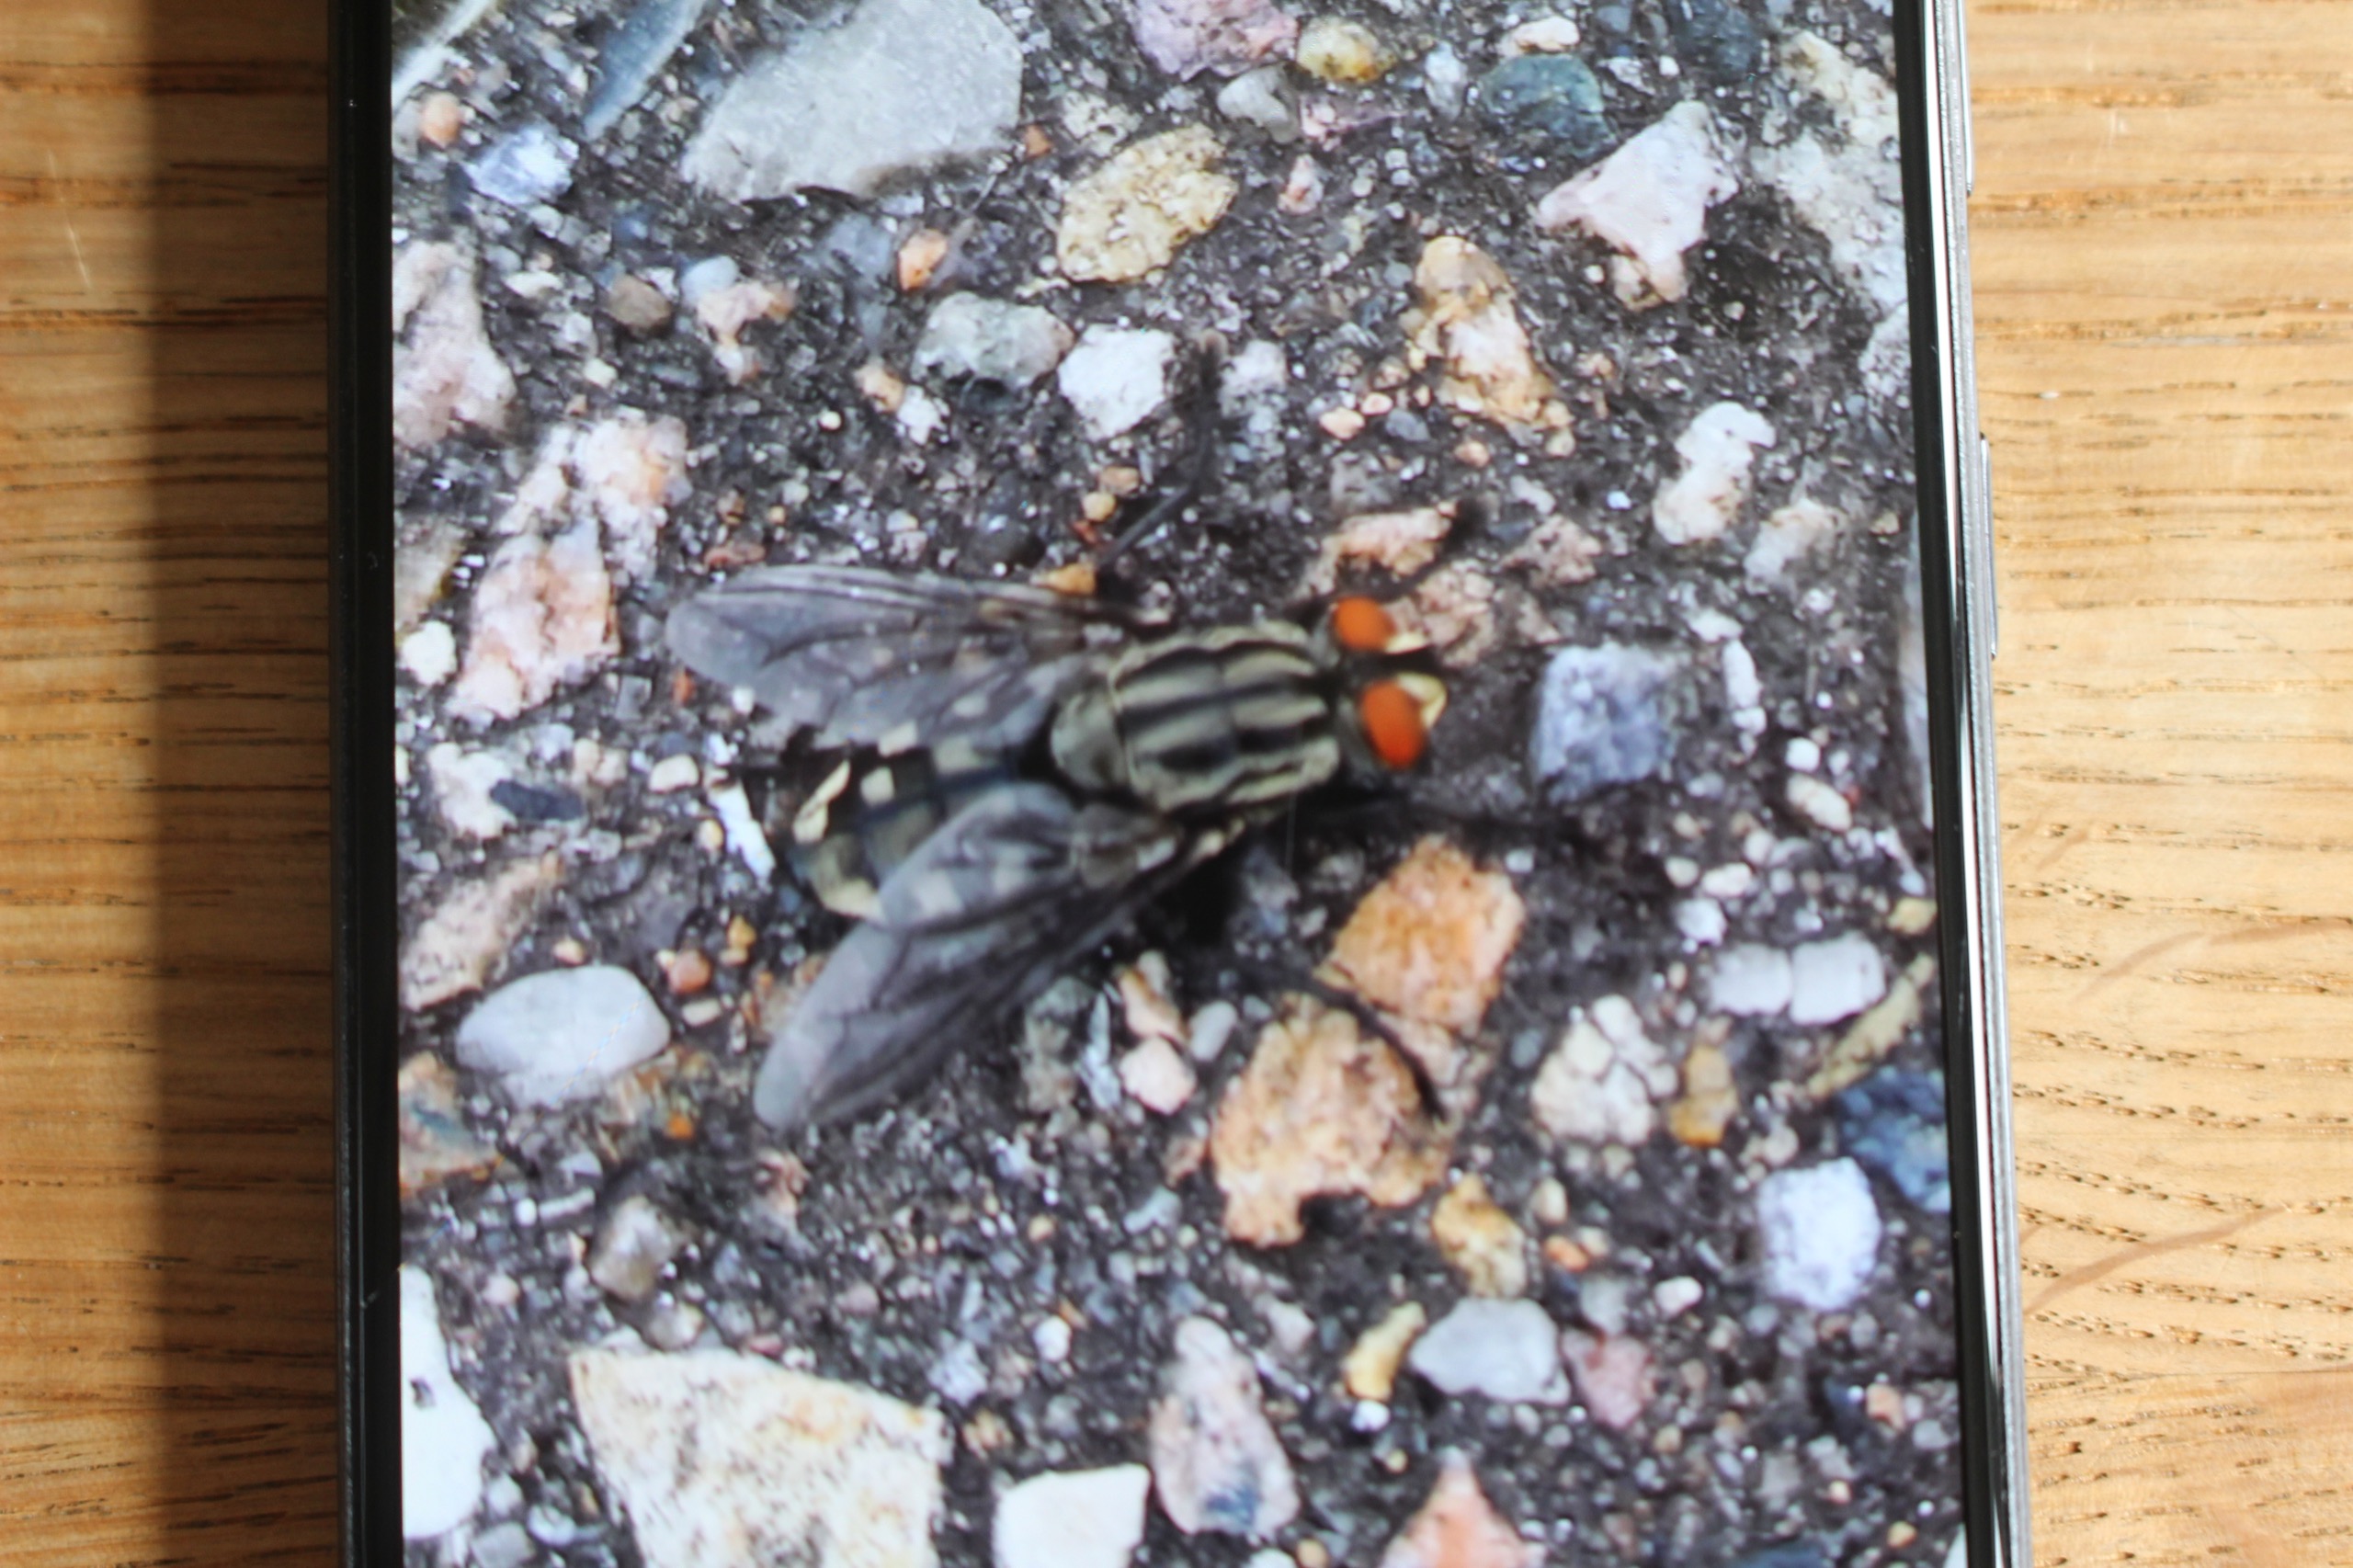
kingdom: Animalia
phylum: Arthropoda
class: Insecta
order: Diptera
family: Sarcophagidae
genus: Sarcophaga
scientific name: Sarcophaga
